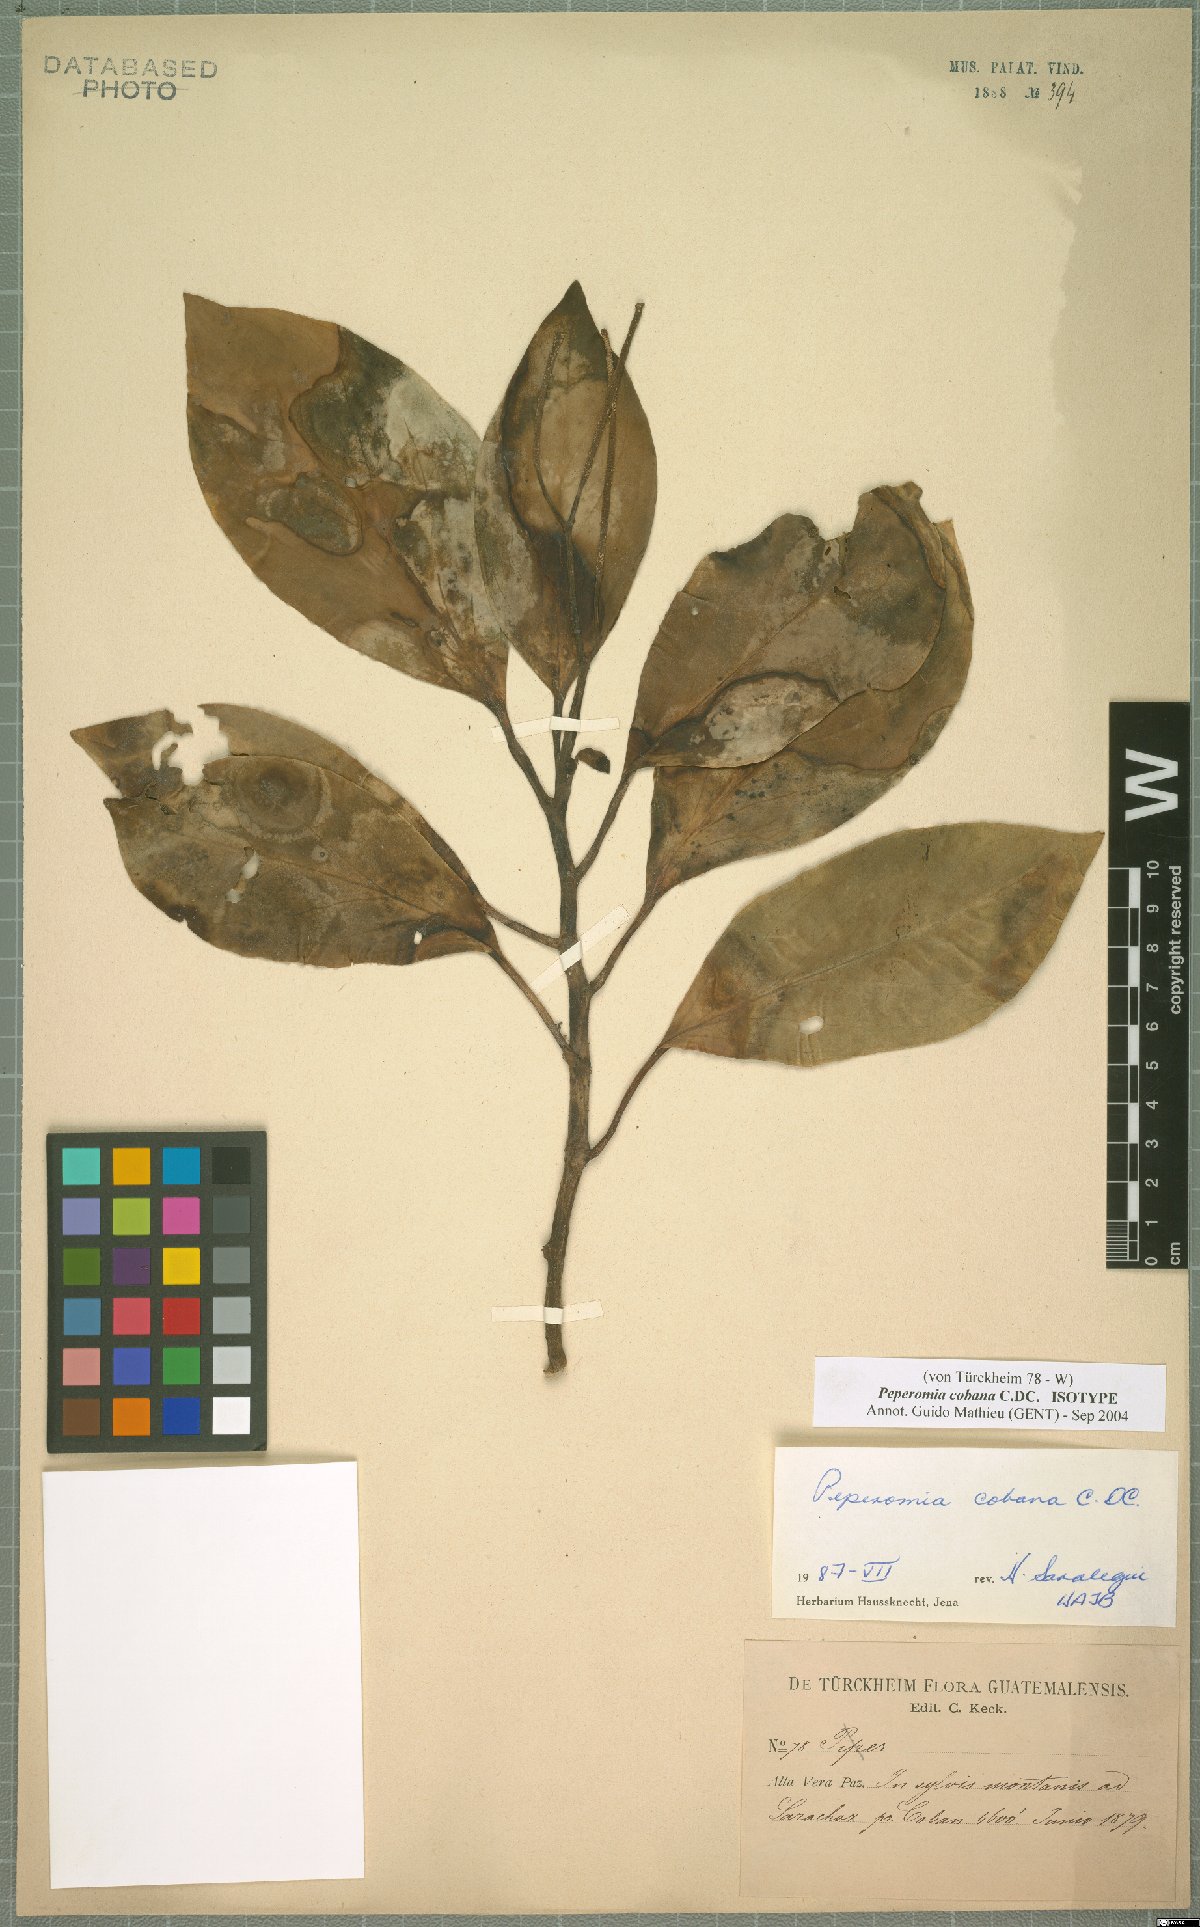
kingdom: Plantae
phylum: Tracheophyta
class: Magnoliopsida
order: Piperales
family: Piperaceae
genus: Peperomia
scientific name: Peperomia cobana
